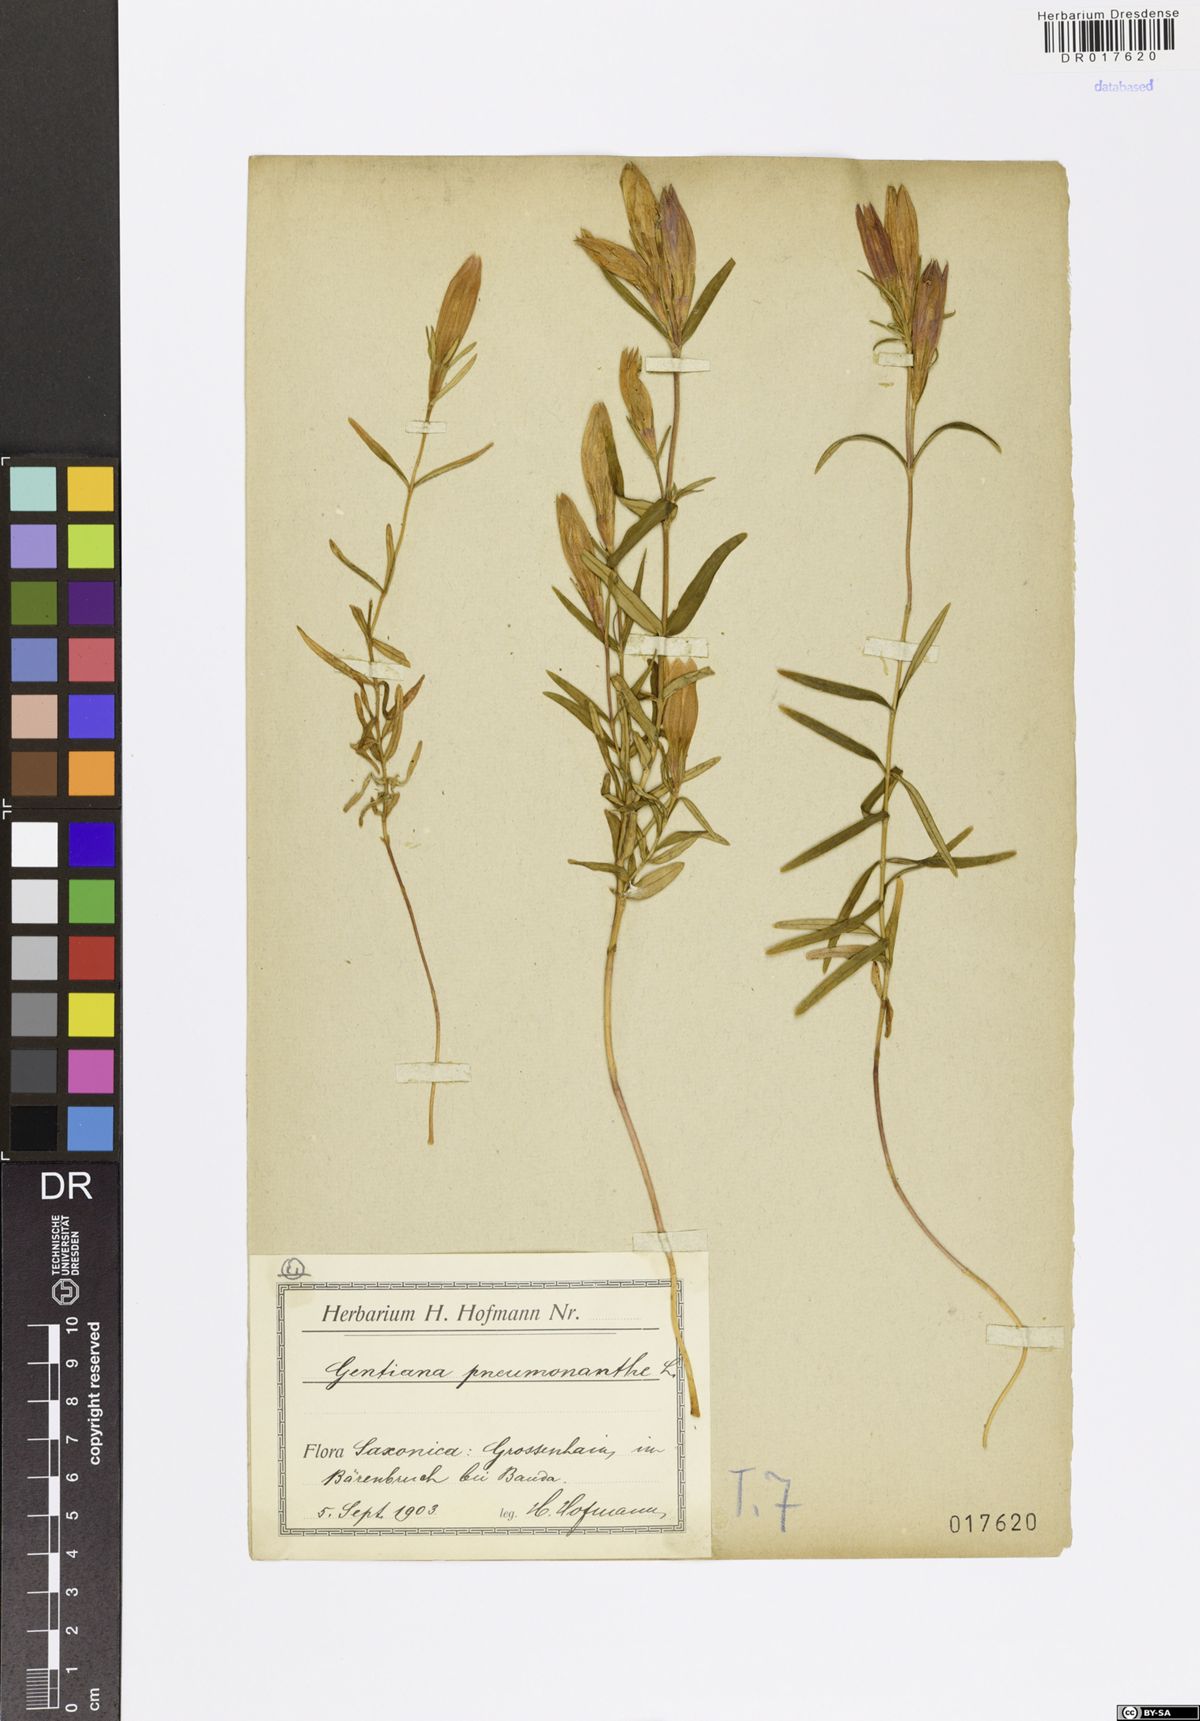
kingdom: Plantae
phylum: Tracheophyta
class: Magnoliopsida
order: Gentianales
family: Gentianaceae
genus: Gentiana
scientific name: Gentiana pneumonanthe
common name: Marsh gentian
